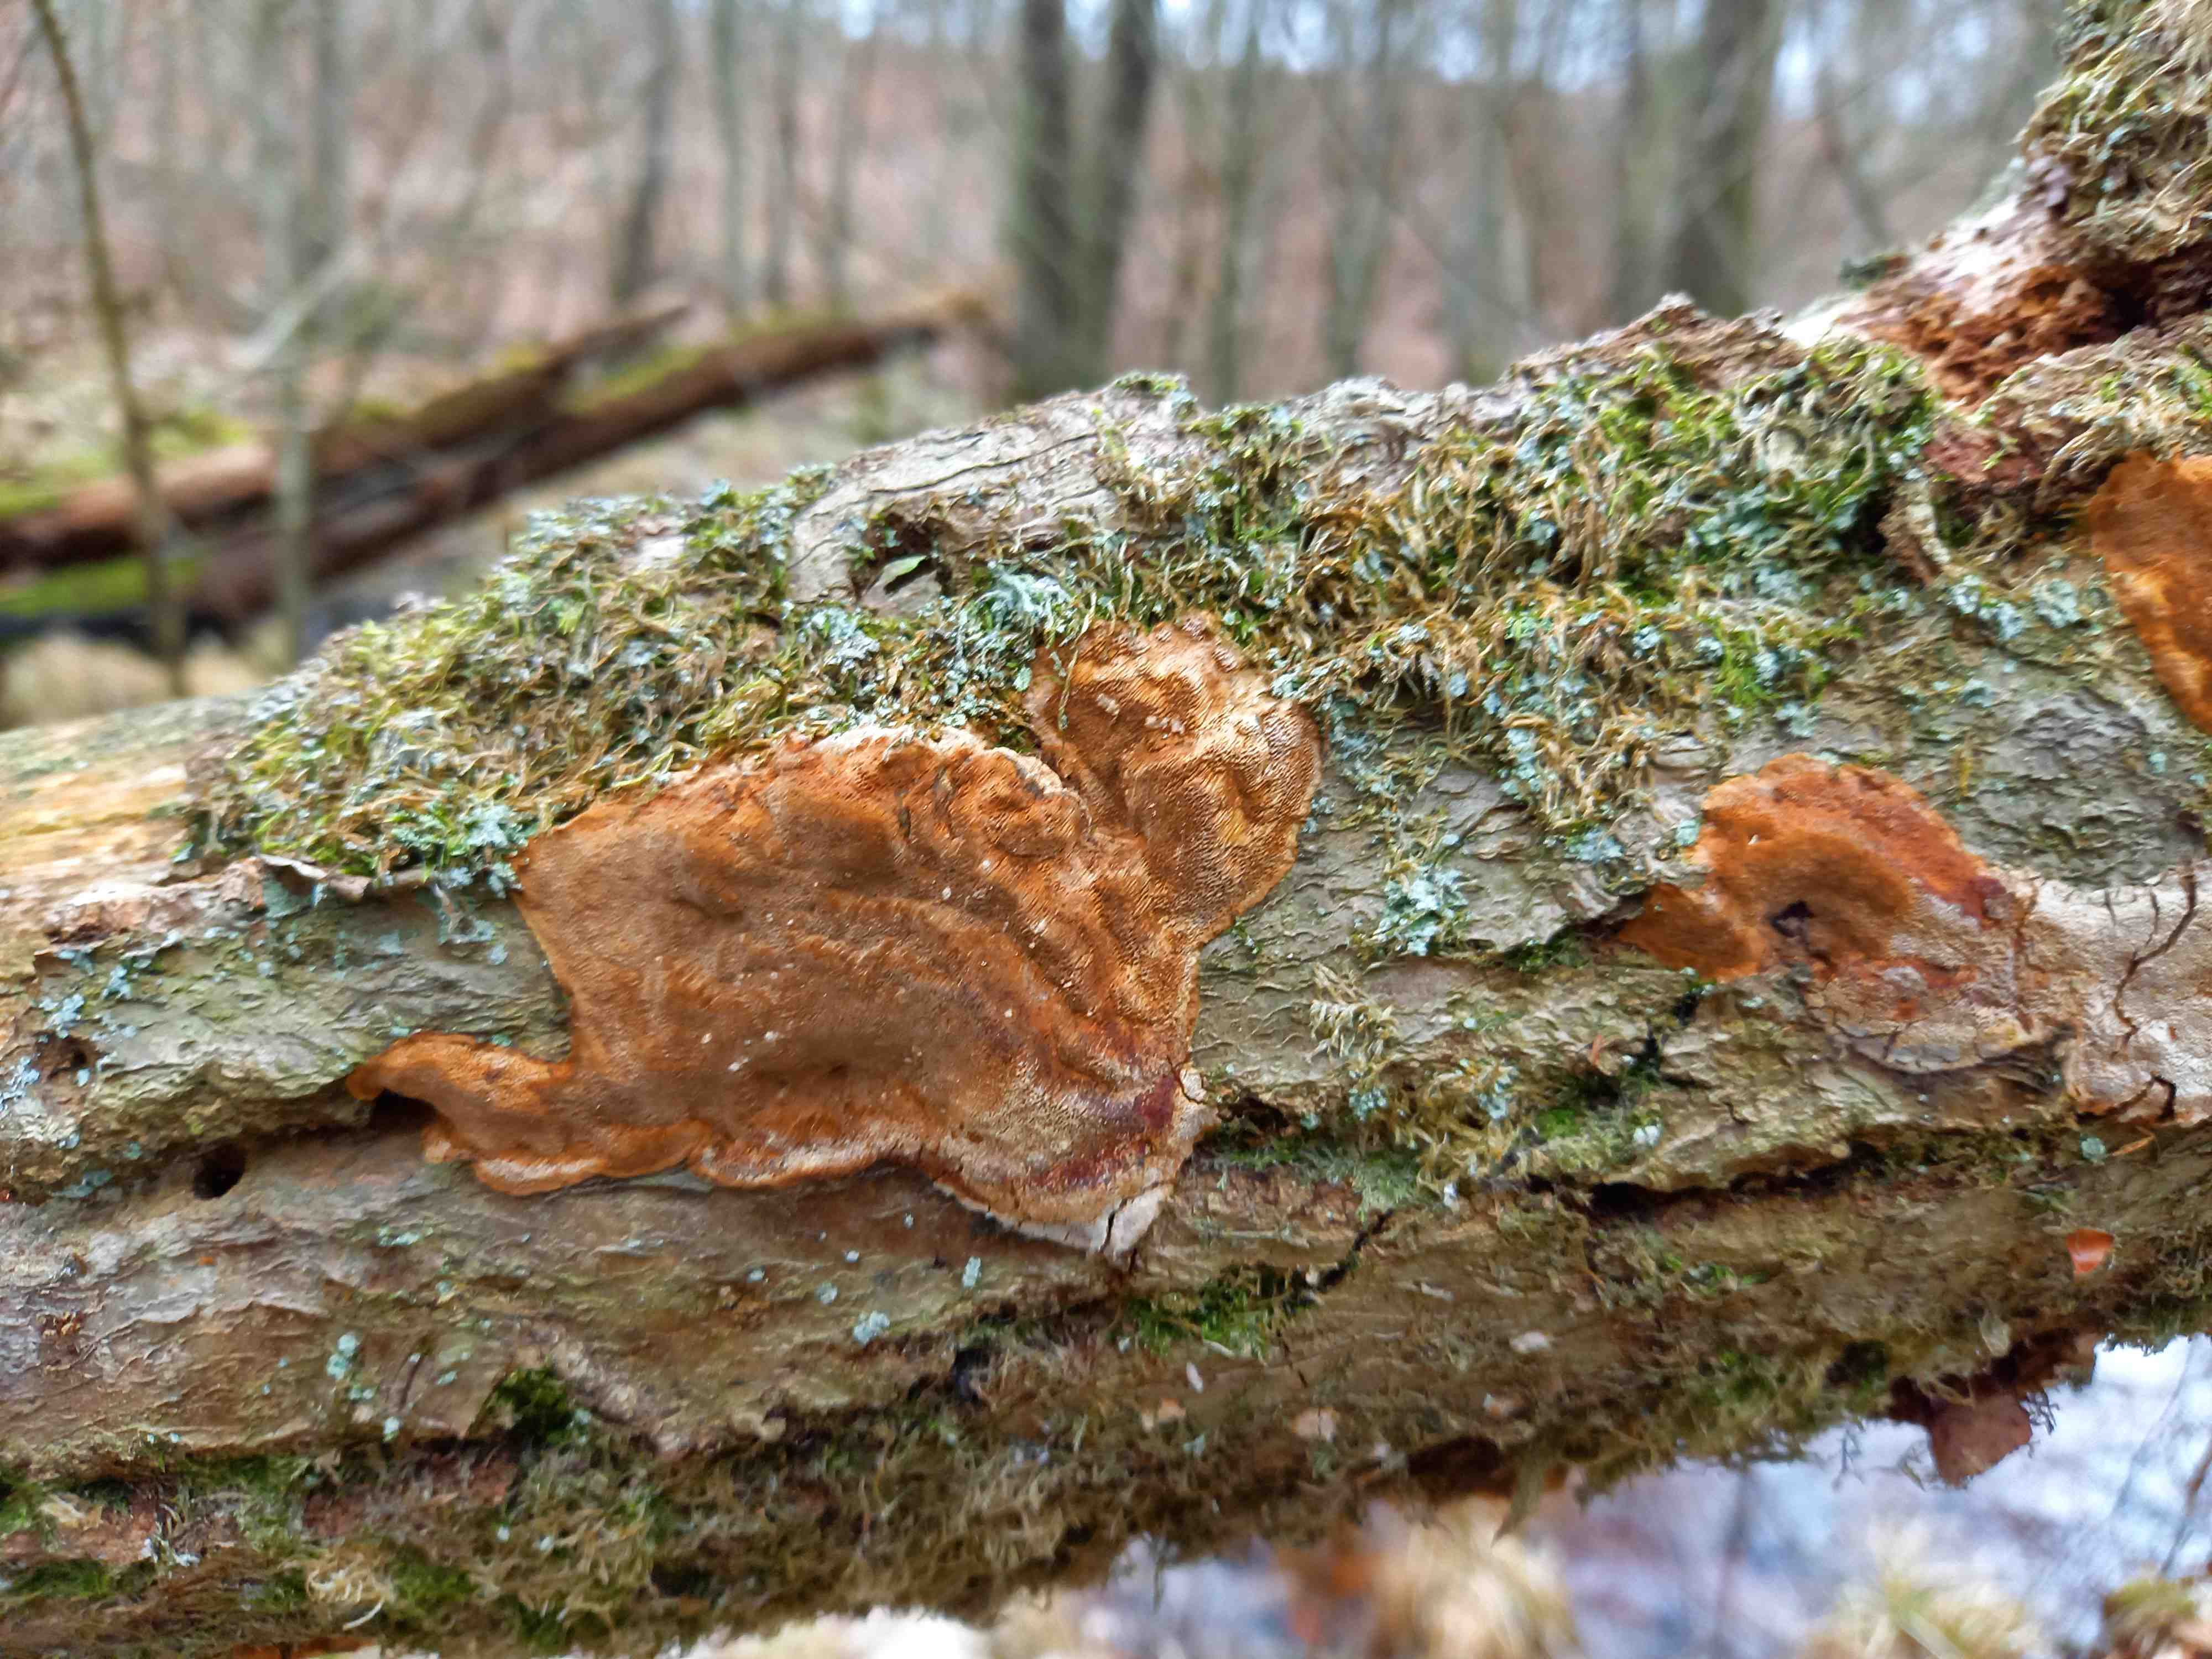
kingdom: Fungi
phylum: Basidiomycota
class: Agaricomycetes
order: Hymenochaetales
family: Hymenochaetaceae
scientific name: Hymenochaetaceae
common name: børstesvampfamilien
